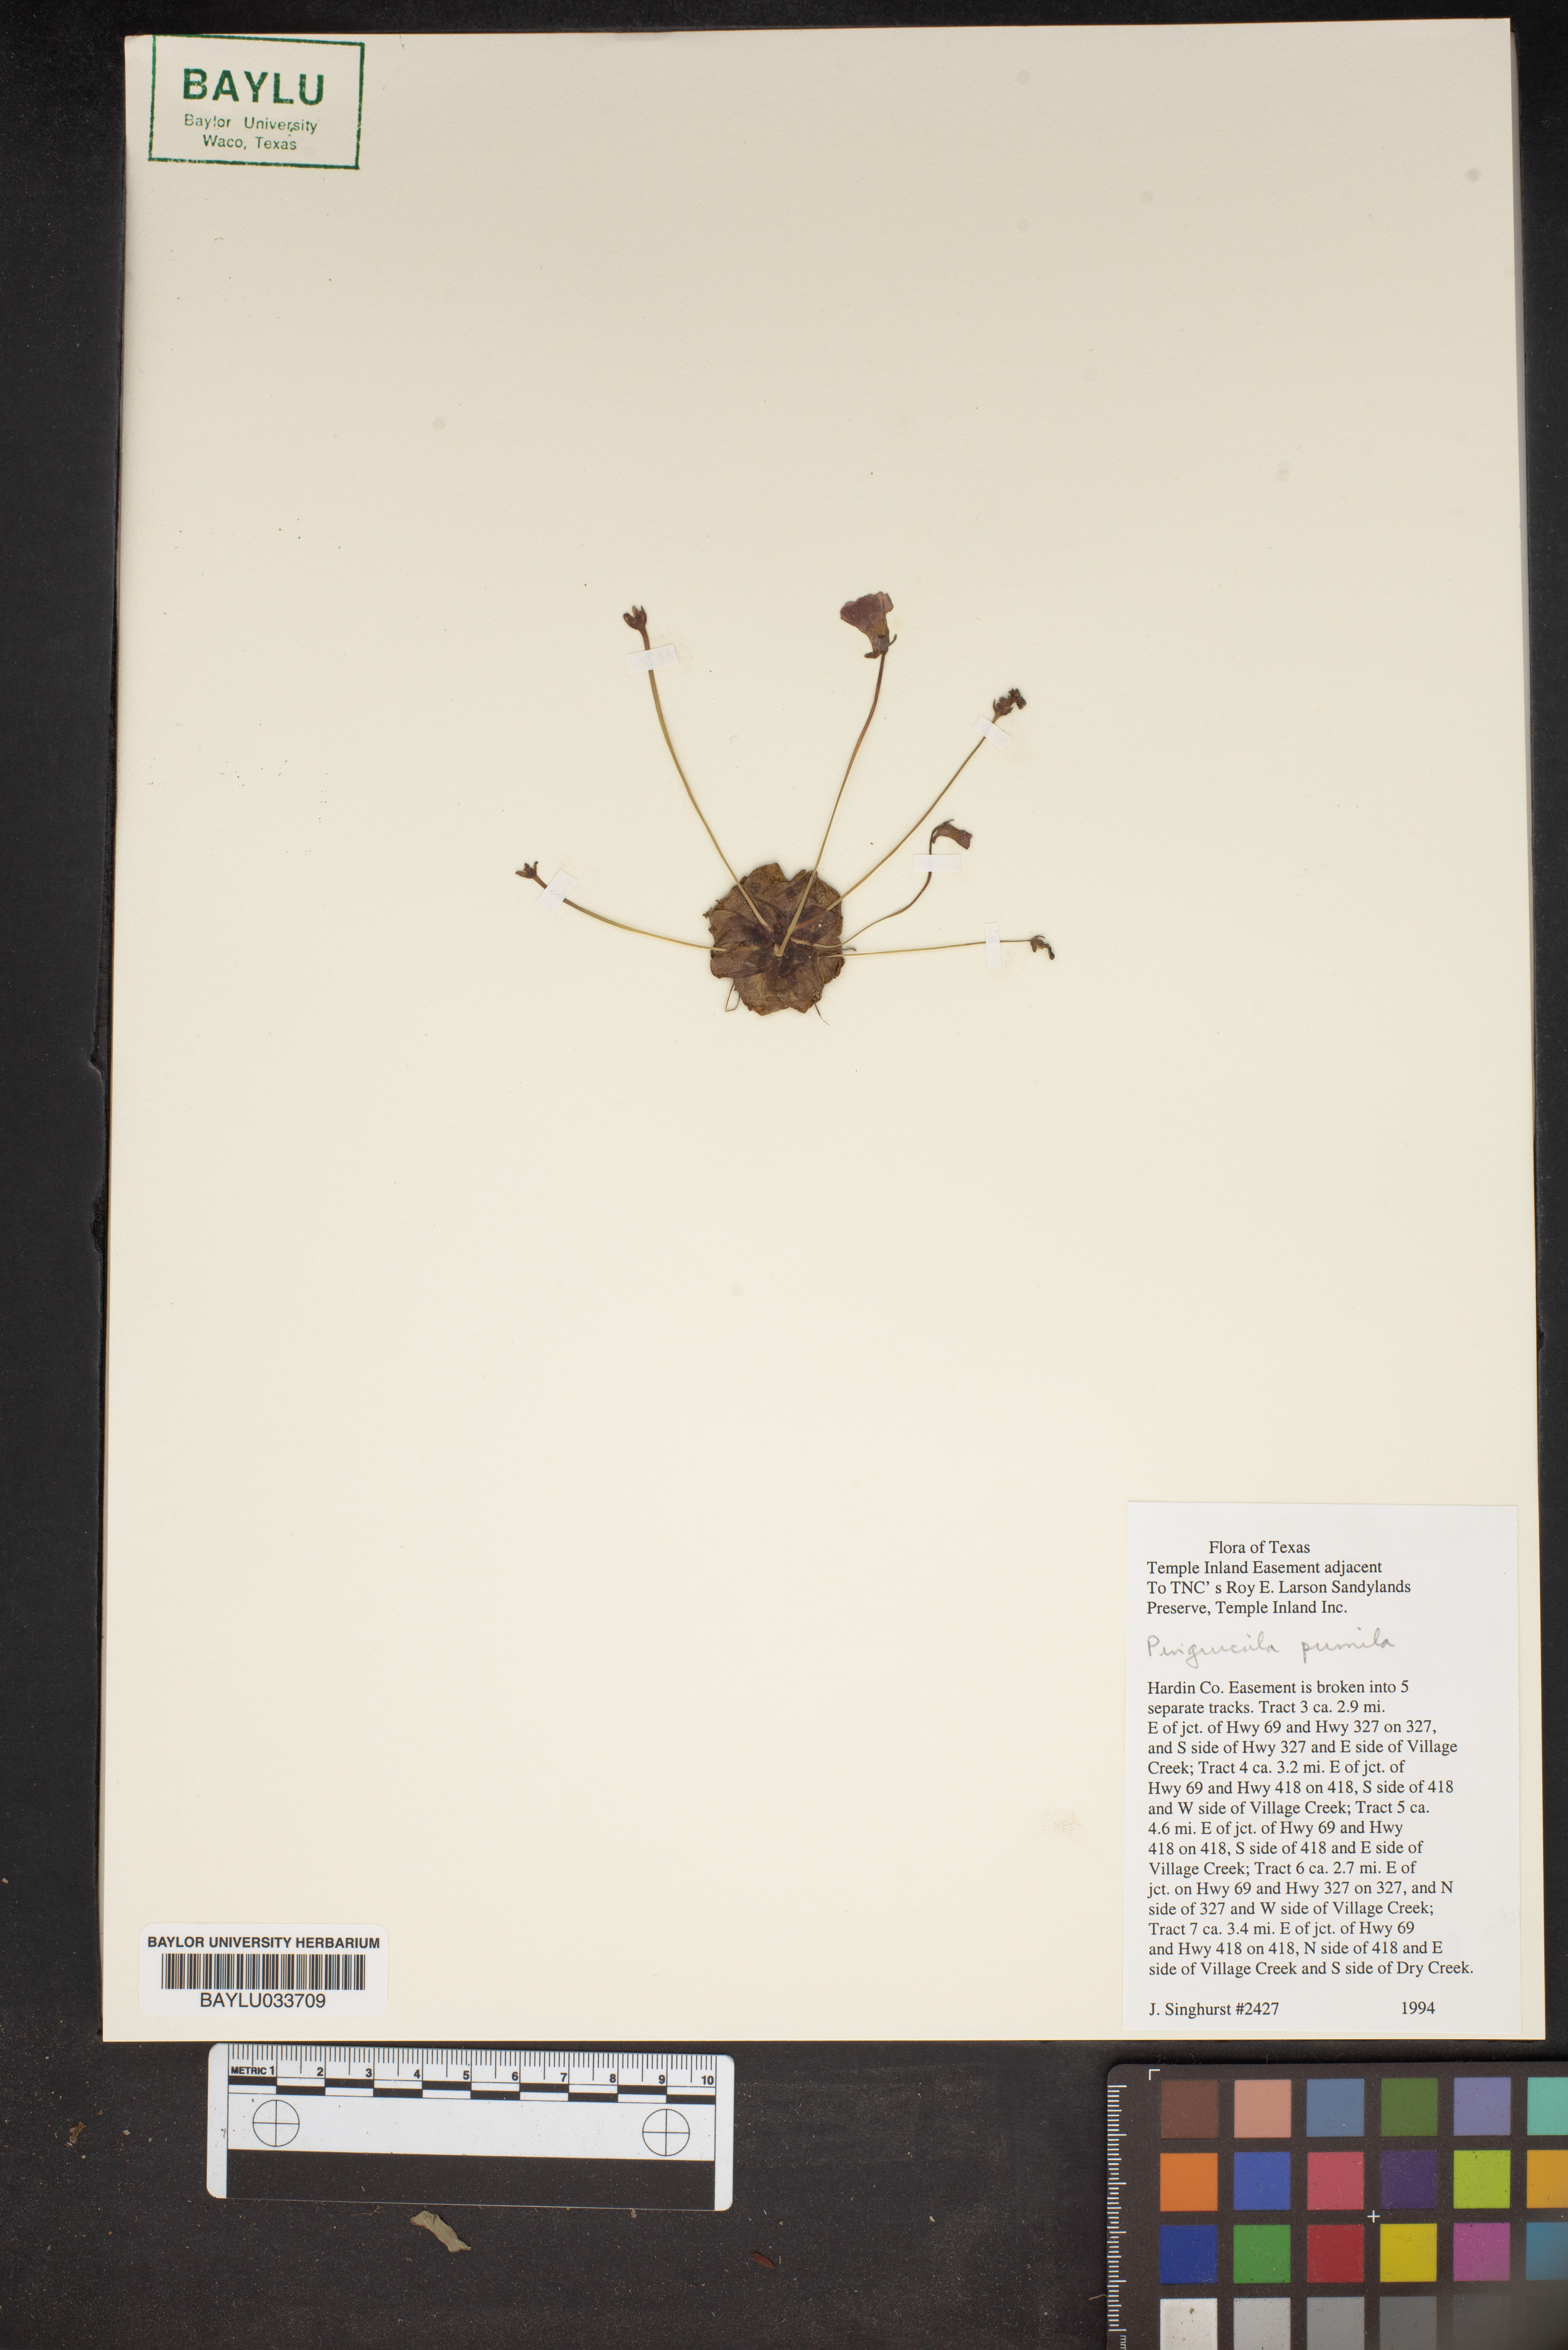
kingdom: Plantae
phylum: Tracheophyta
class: Magnoliopsida
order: Lamiales
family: Lentibulariaceae
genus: Pinguicula
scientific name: Pinguicula pumila
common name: Small butterwort
